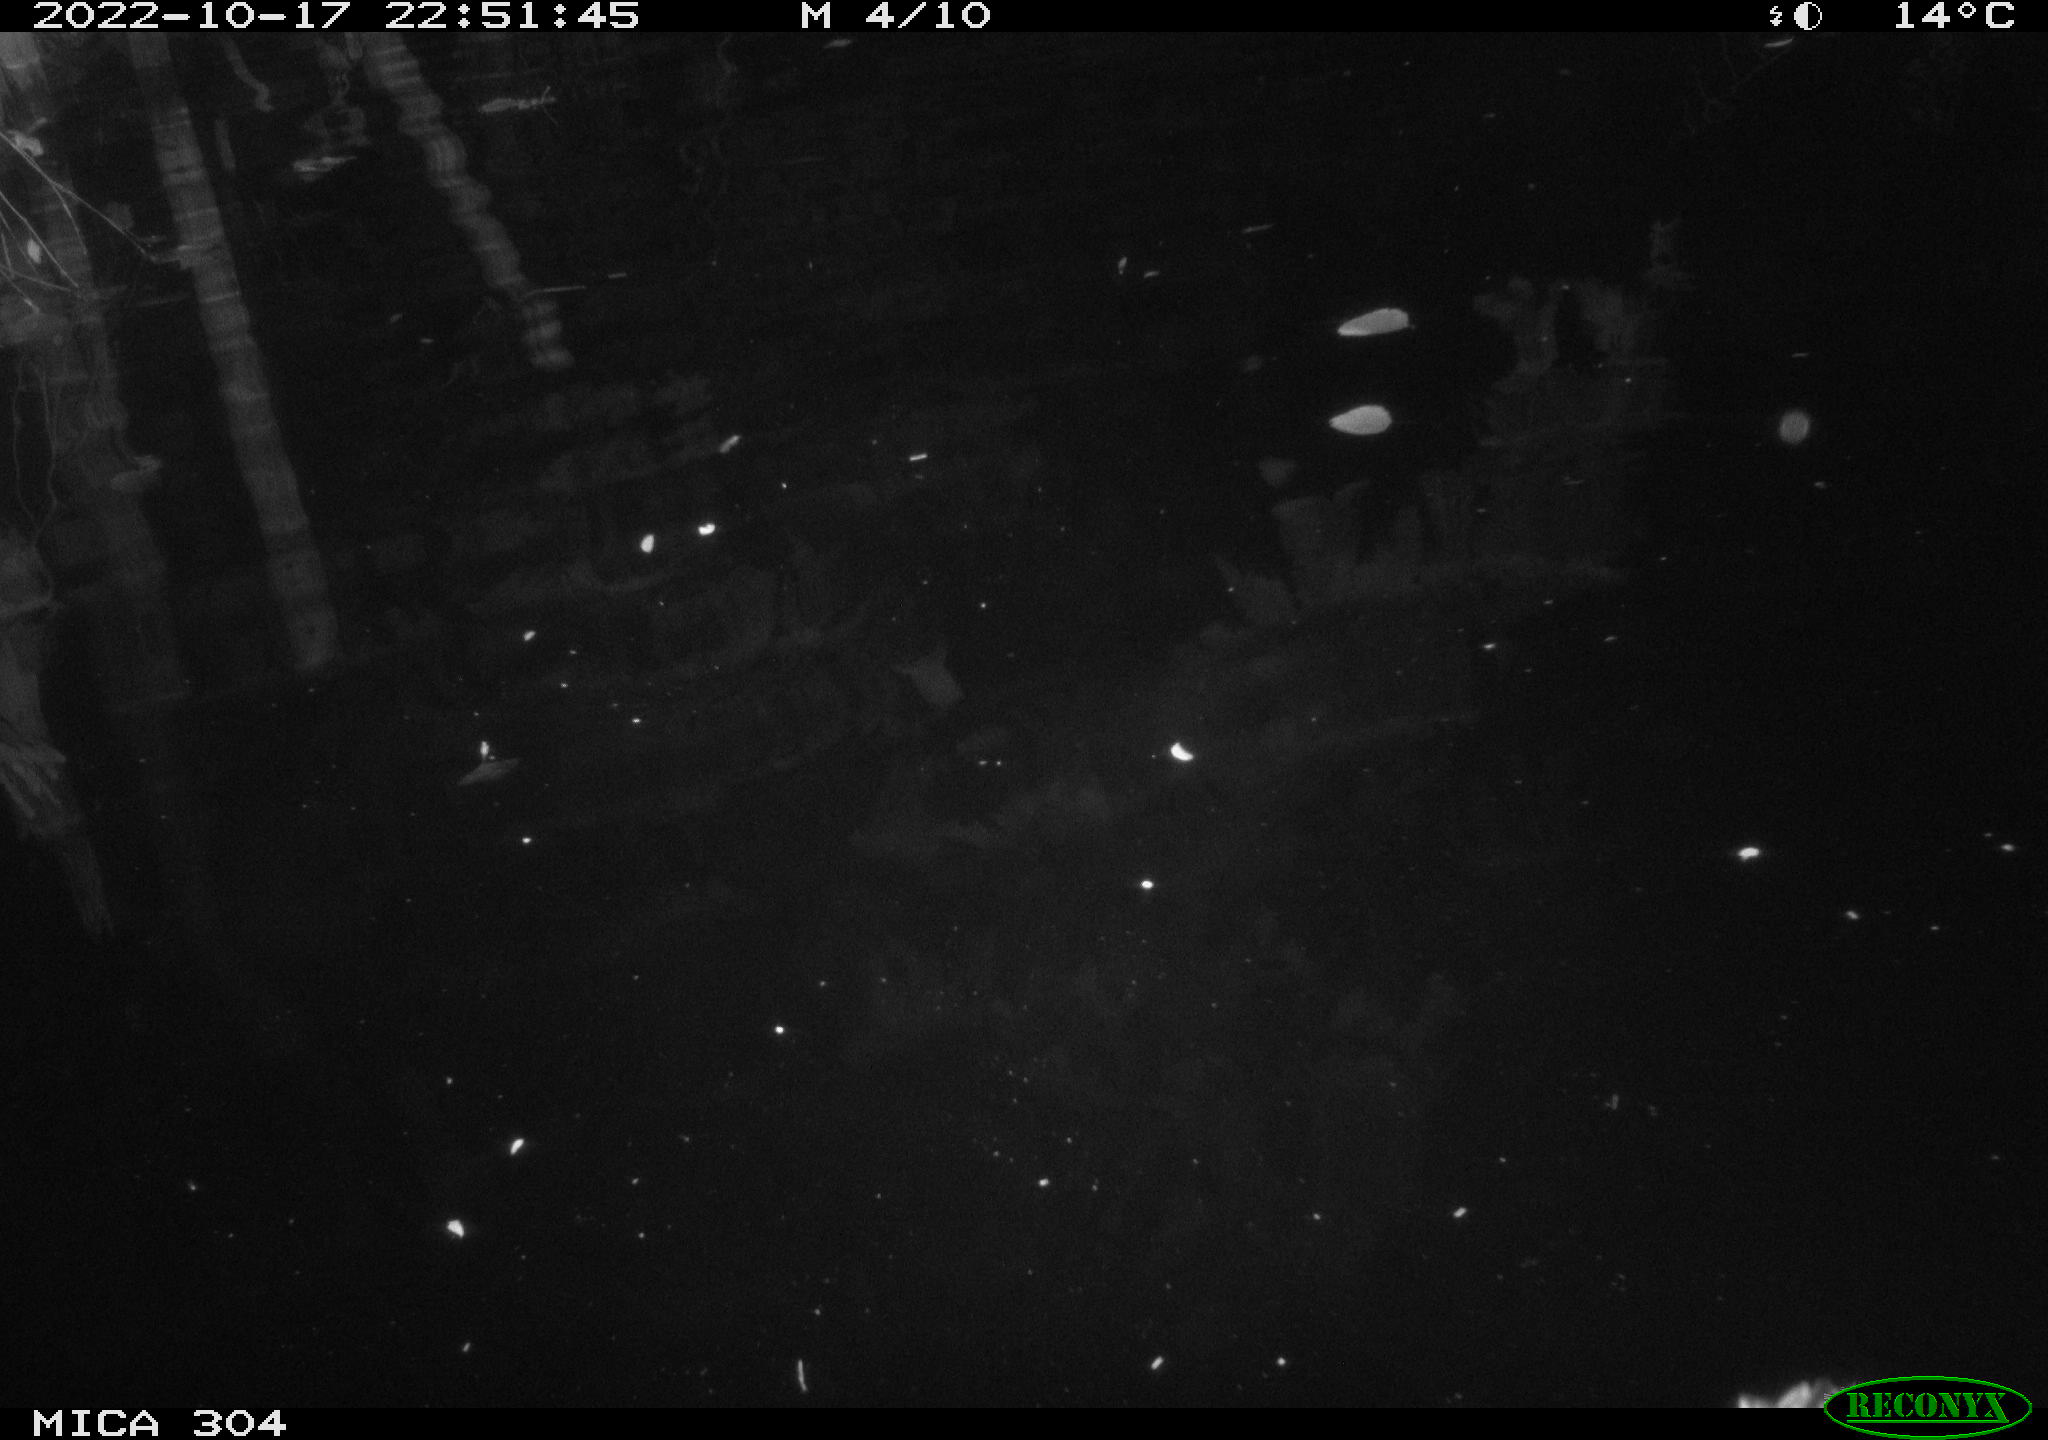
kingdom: Animalia
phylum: Chordata
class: Aves
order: Anseriformes
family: Anatidae
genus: Anas
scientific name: Anas
